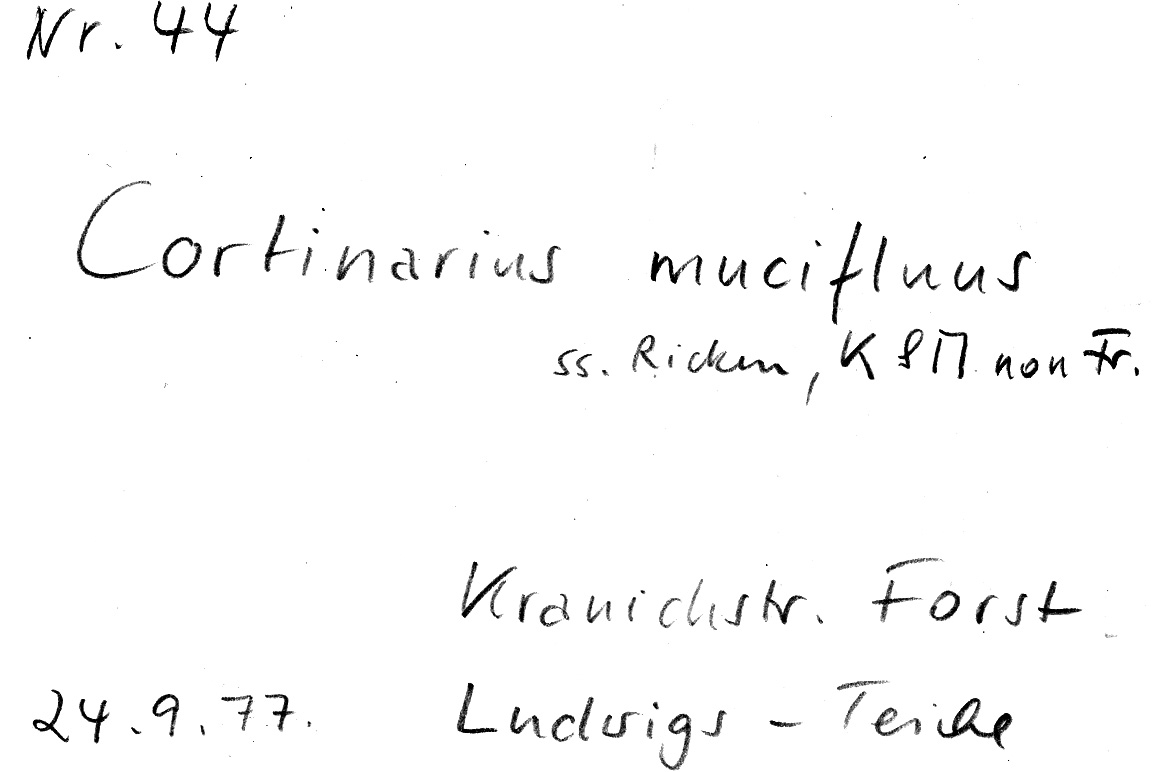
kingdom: Fungi
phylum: Basidiomycota
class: Agaricomycetes
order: Agaricales
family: Cortinariaceae
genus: Cortinarius
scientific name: Cortinarius trivialis
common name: Girdled webcap
